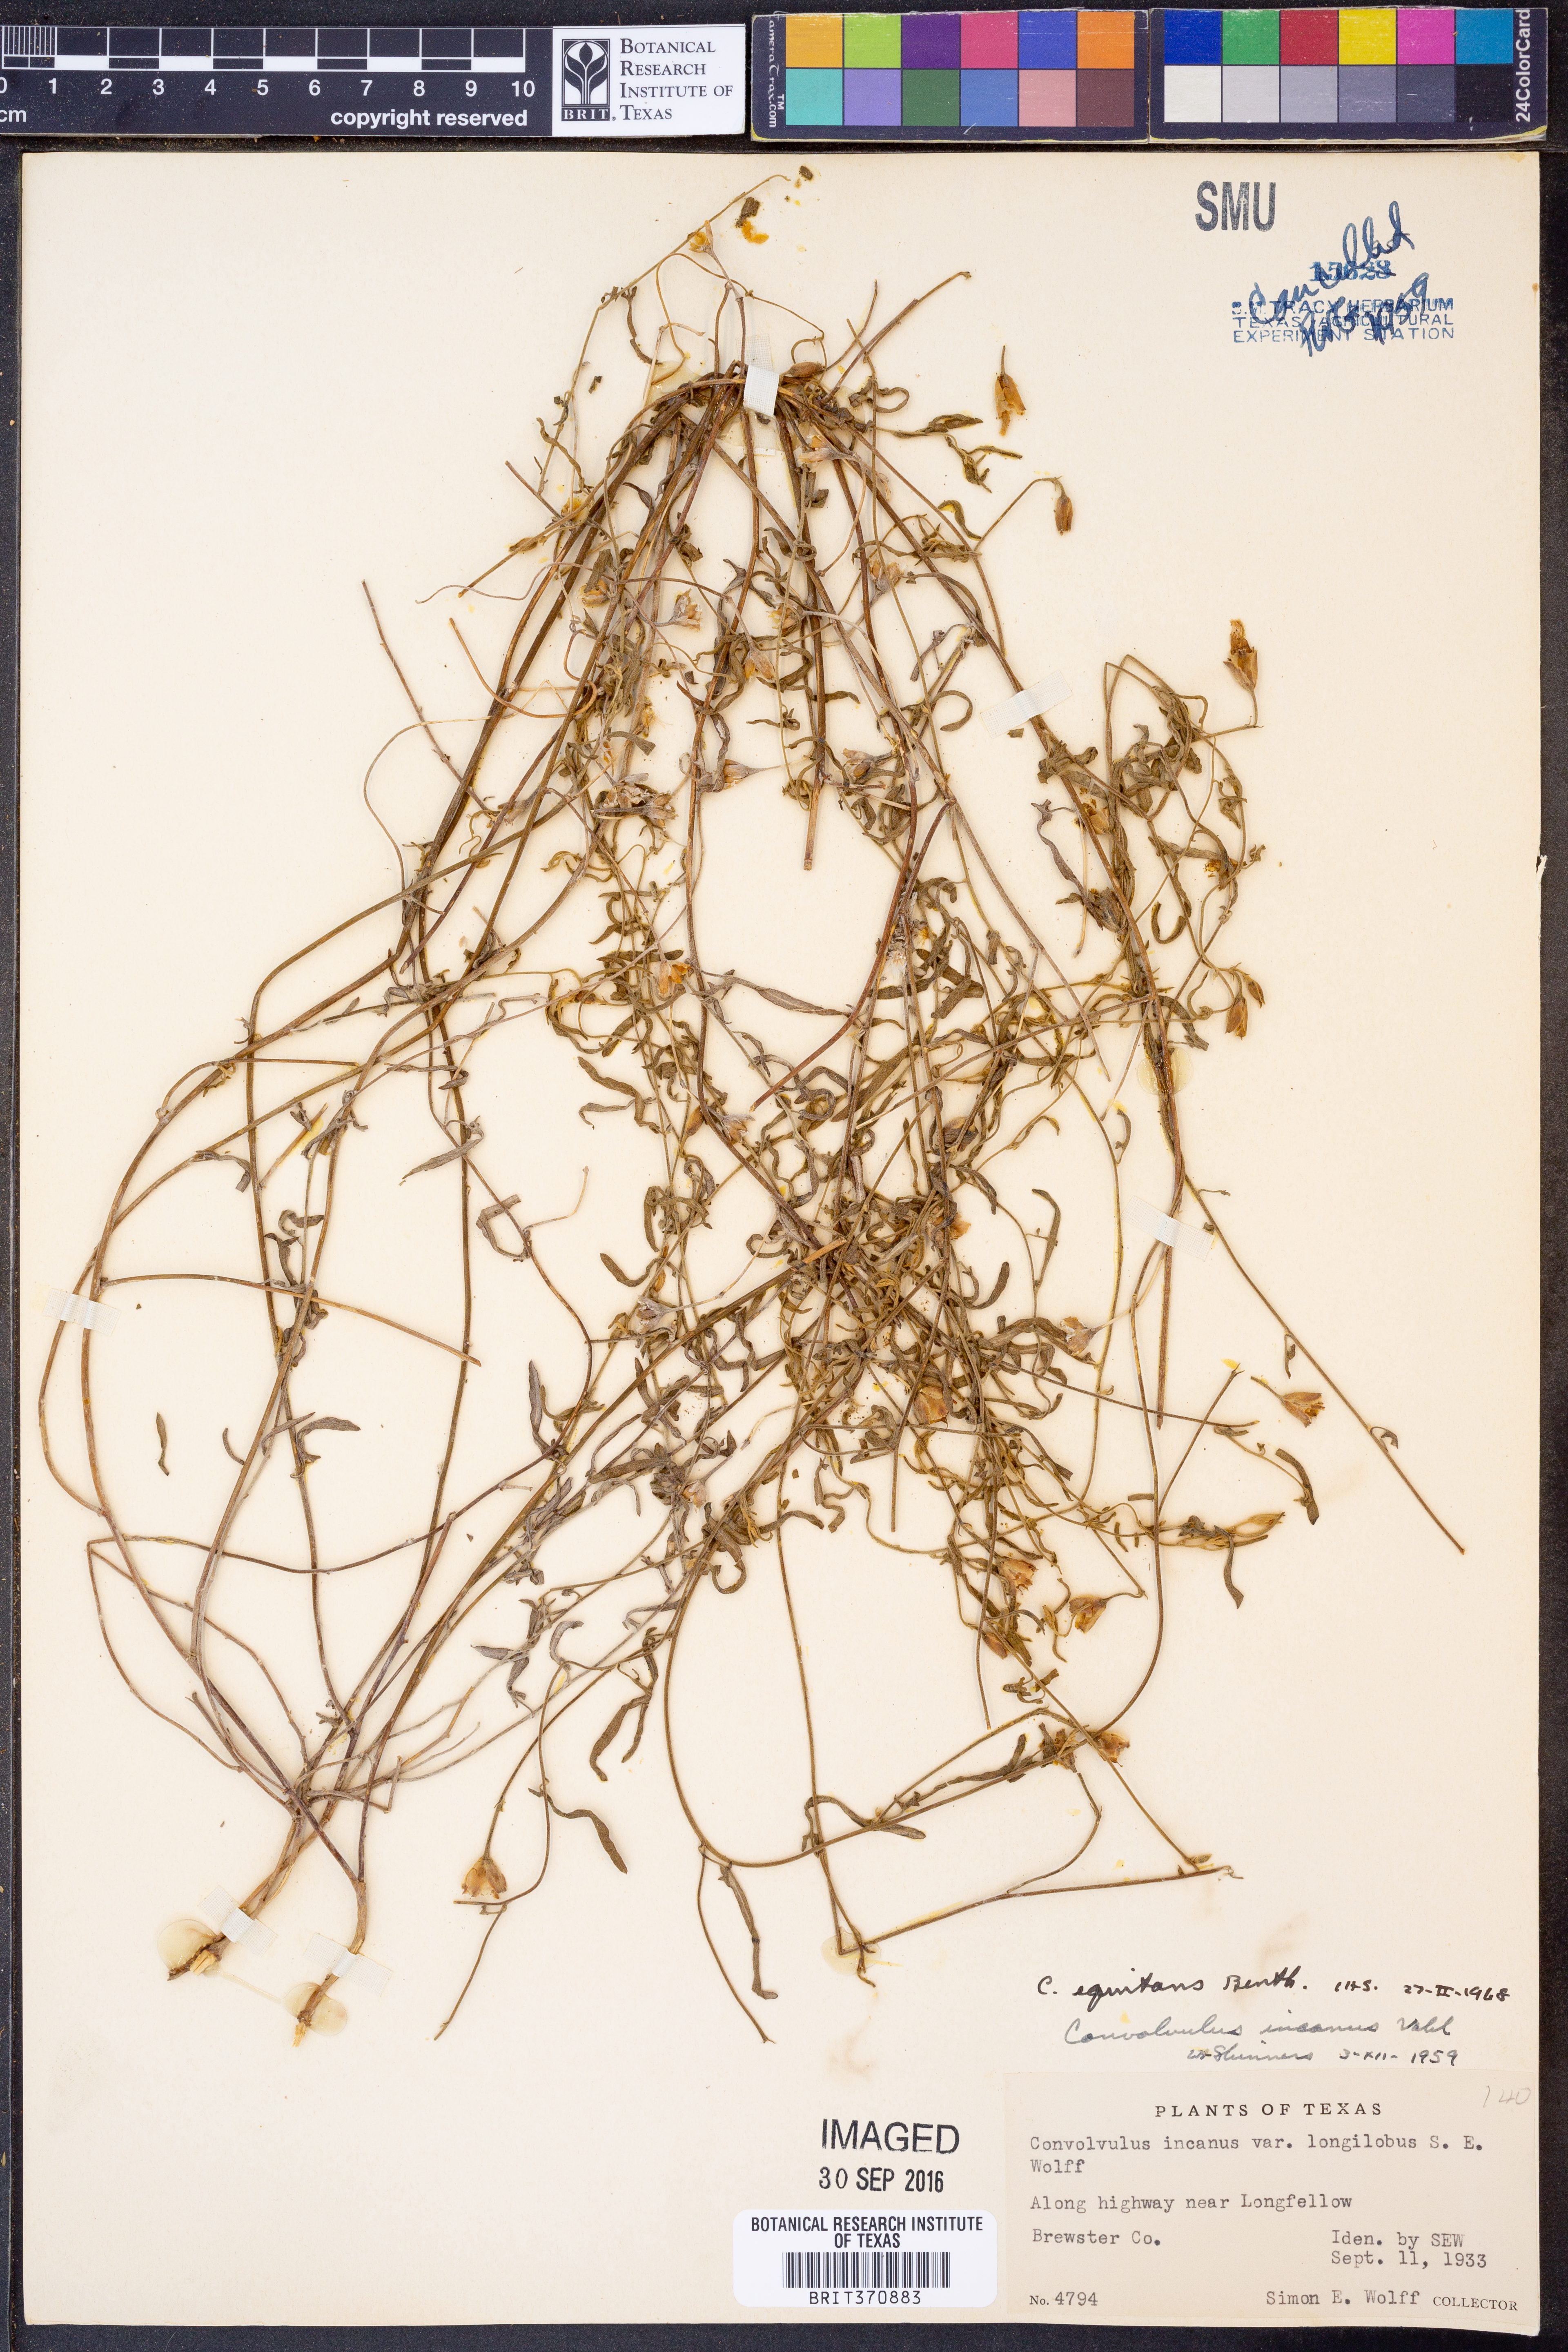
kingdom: Plantae
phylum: Tracheophyta
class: Magnoliopsida
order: Solanales
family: Convolvulaceae
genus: Convolvulus
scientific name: Convolvulus equitans
